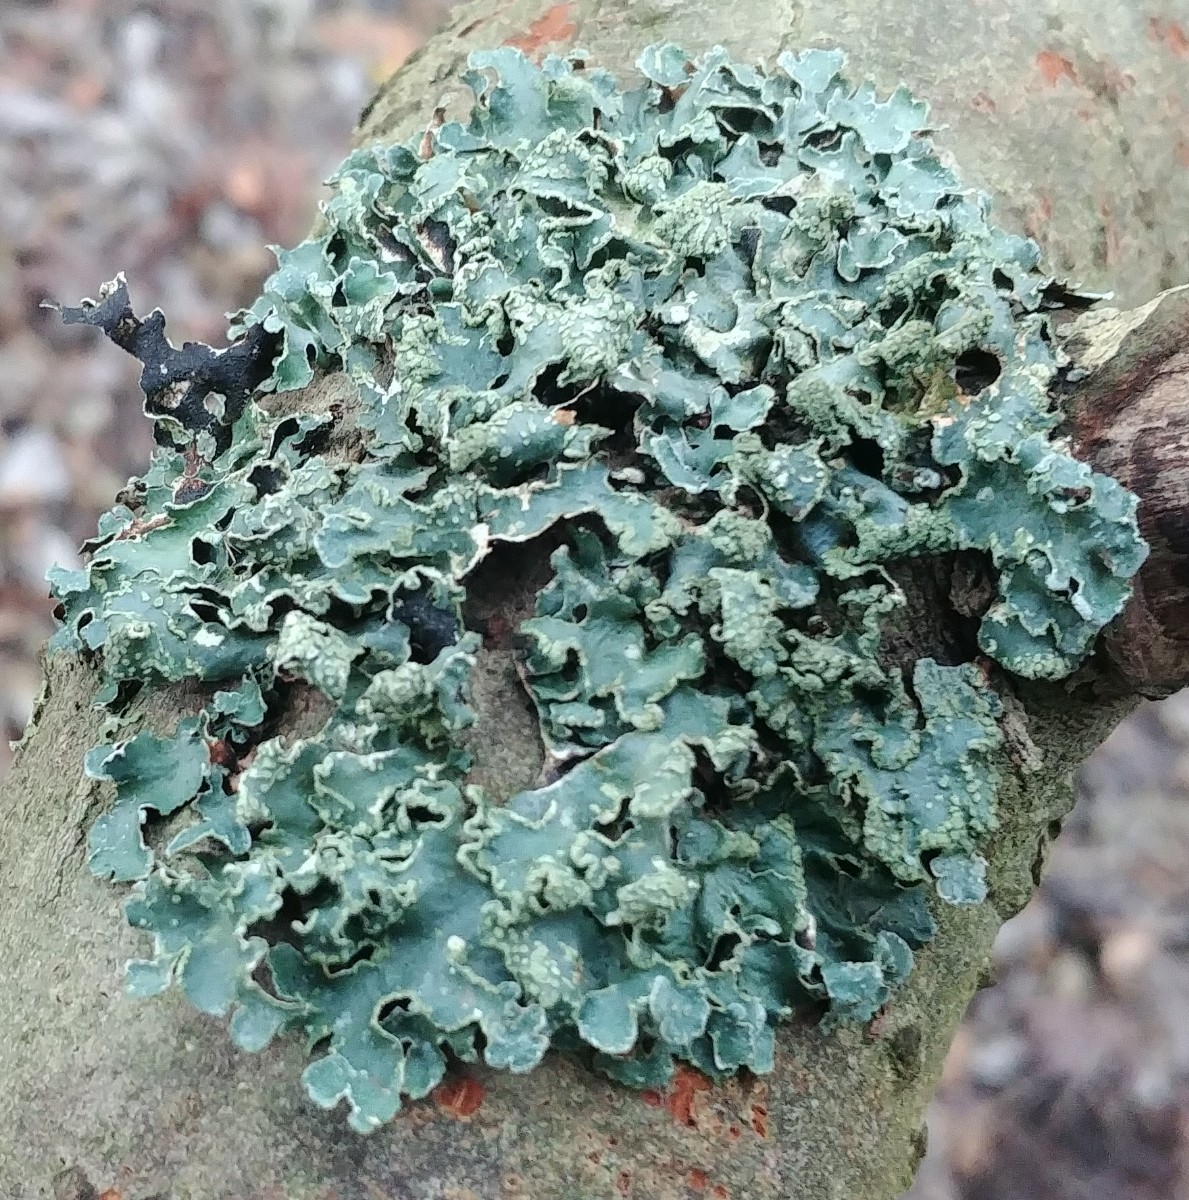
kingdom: Fungi
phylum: Ascomycota
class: Lecanoromycetes
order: Lecanorales
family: Parmeliaceae
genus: Parmelia
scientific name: Parmelia sulcata
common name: rynket skållav
